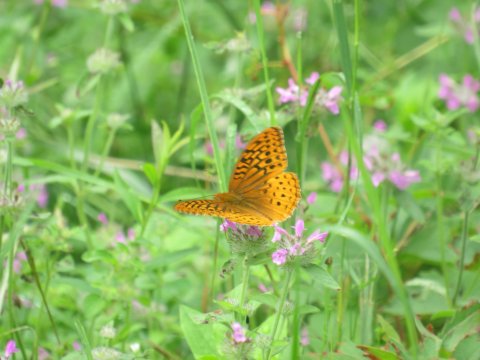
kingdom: Animalia
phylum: Arthropoda
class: Insecta
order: Lepidoptera
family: Nymphalidae
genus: Speyeria
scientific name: Speyeria cybele
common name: Great Spangled Fritillary
